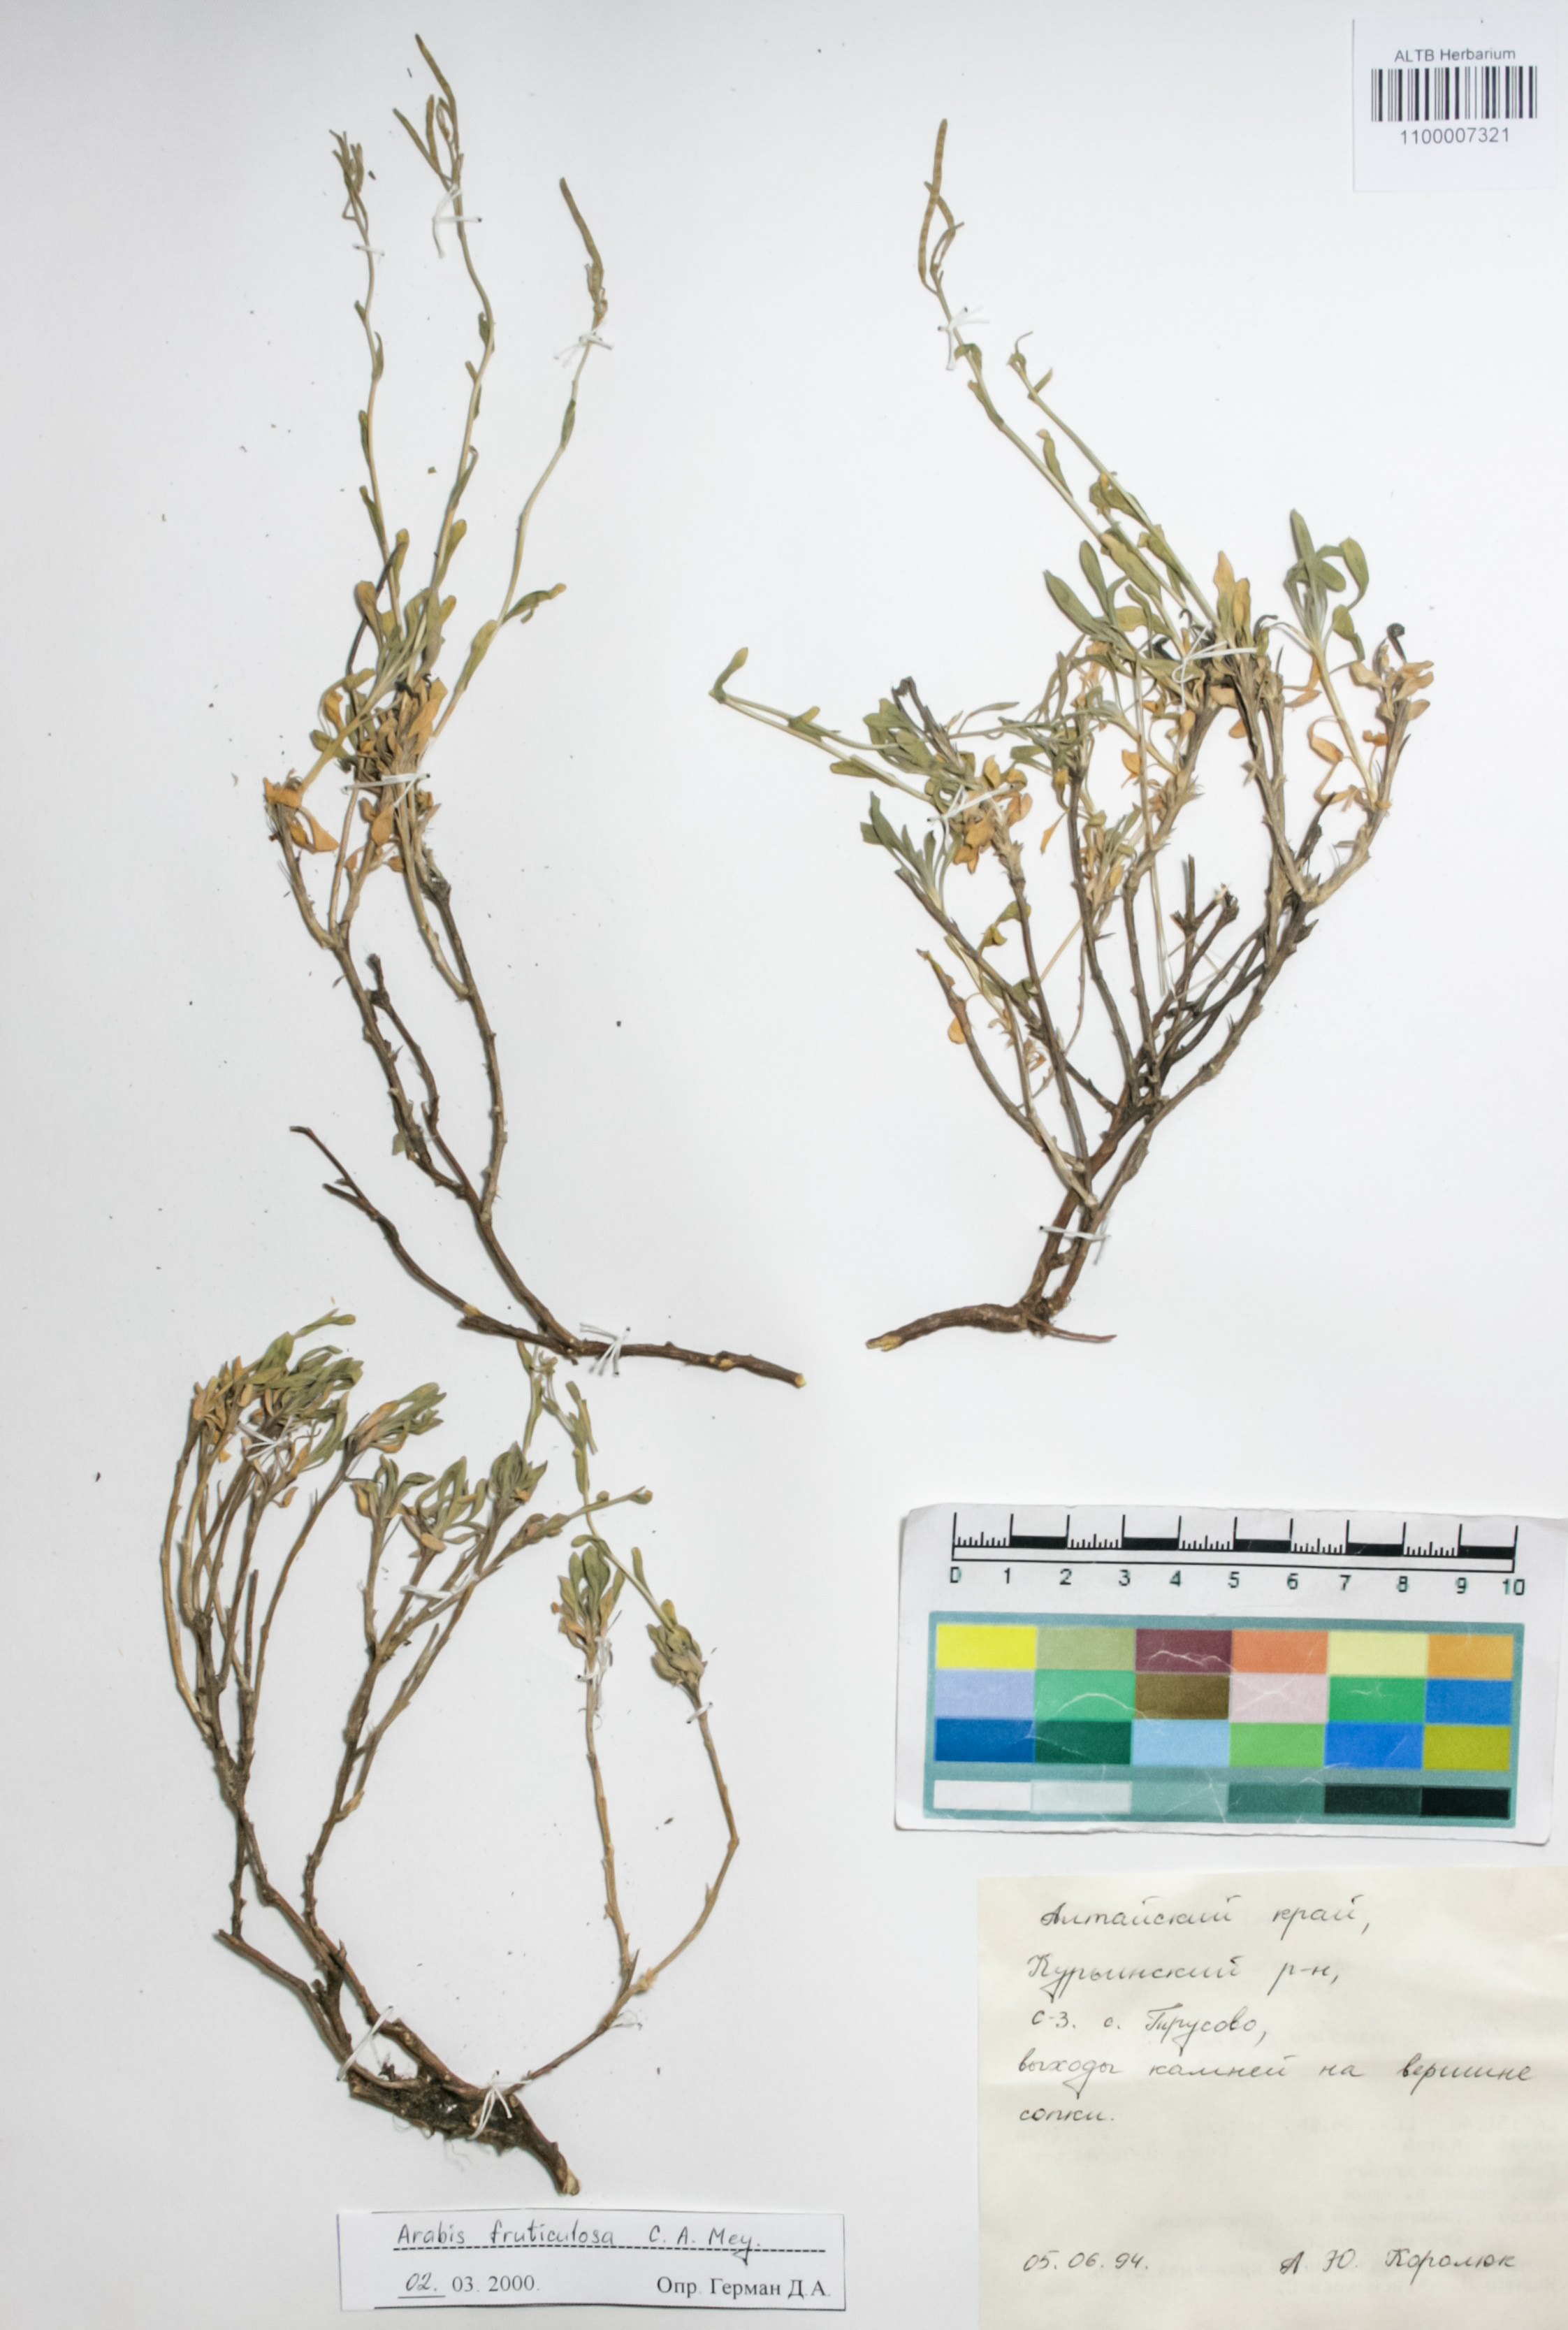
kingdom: Plantae
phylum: Tracheophyta
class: Magnoliopsida
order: Brassicales
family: Brassicaceae
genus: Dendroarabis
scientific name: Dendroarabis fruticulosa
